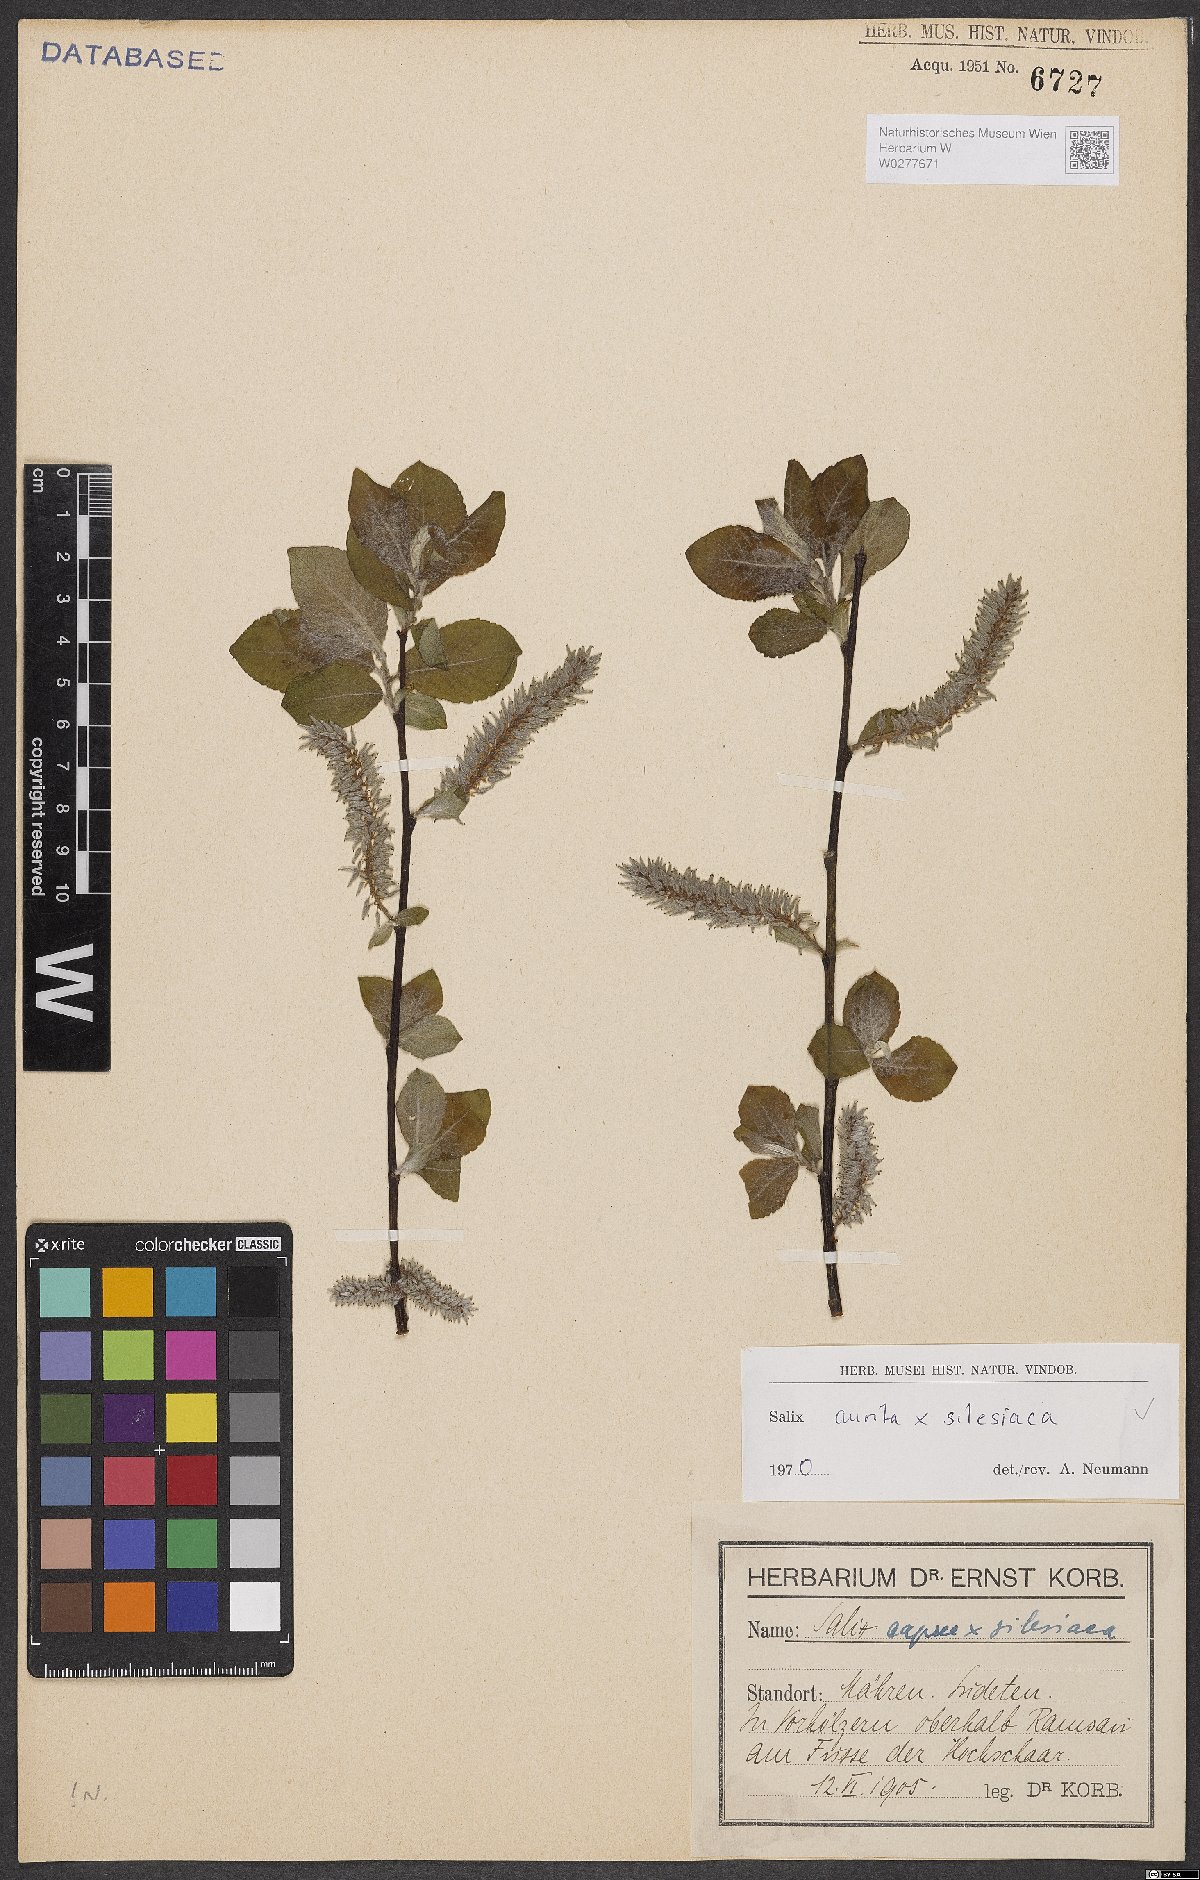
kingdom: Plantae
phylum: Tracheophyta
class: Magnoliopsida
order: Malpighiales
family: Salicaceae
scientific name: Salicaceae
